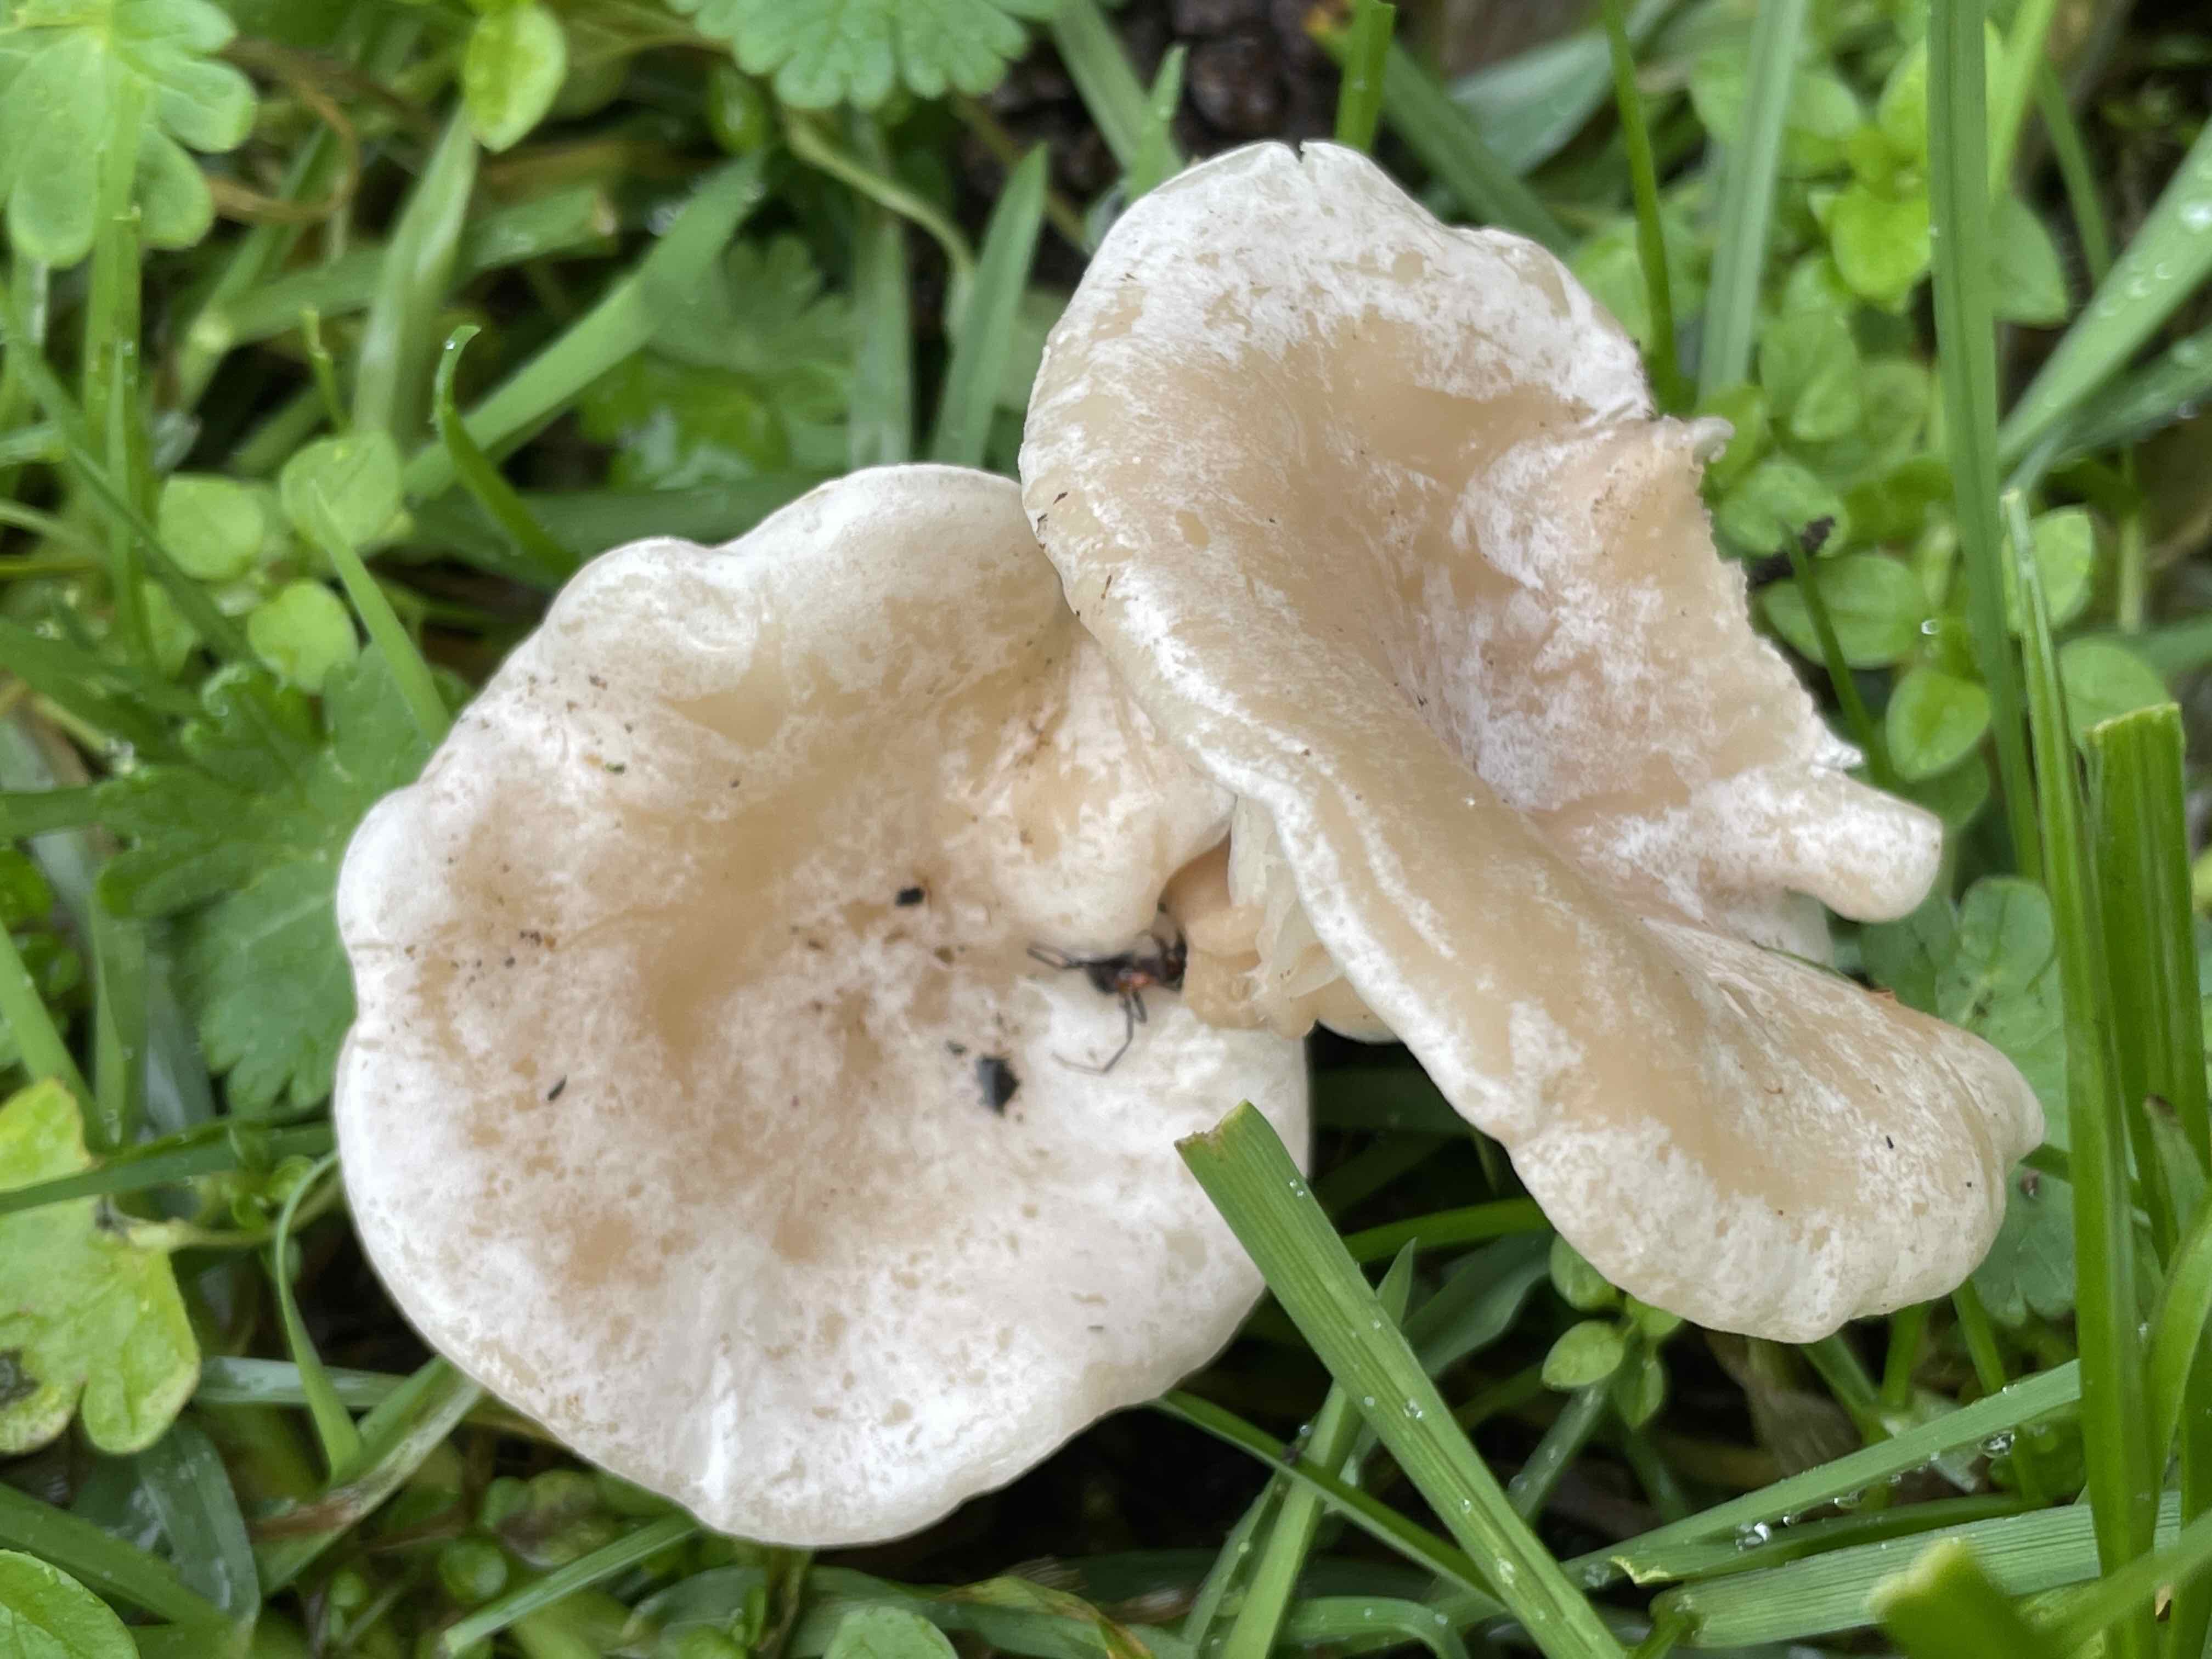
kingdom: Fungi
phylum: Basidiomycota
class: Agaricomycetes
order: Agaricales
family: Tricholomataceae
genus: Clitocybe
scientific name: Clitocybe rivulosa
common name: eng-tragthat
